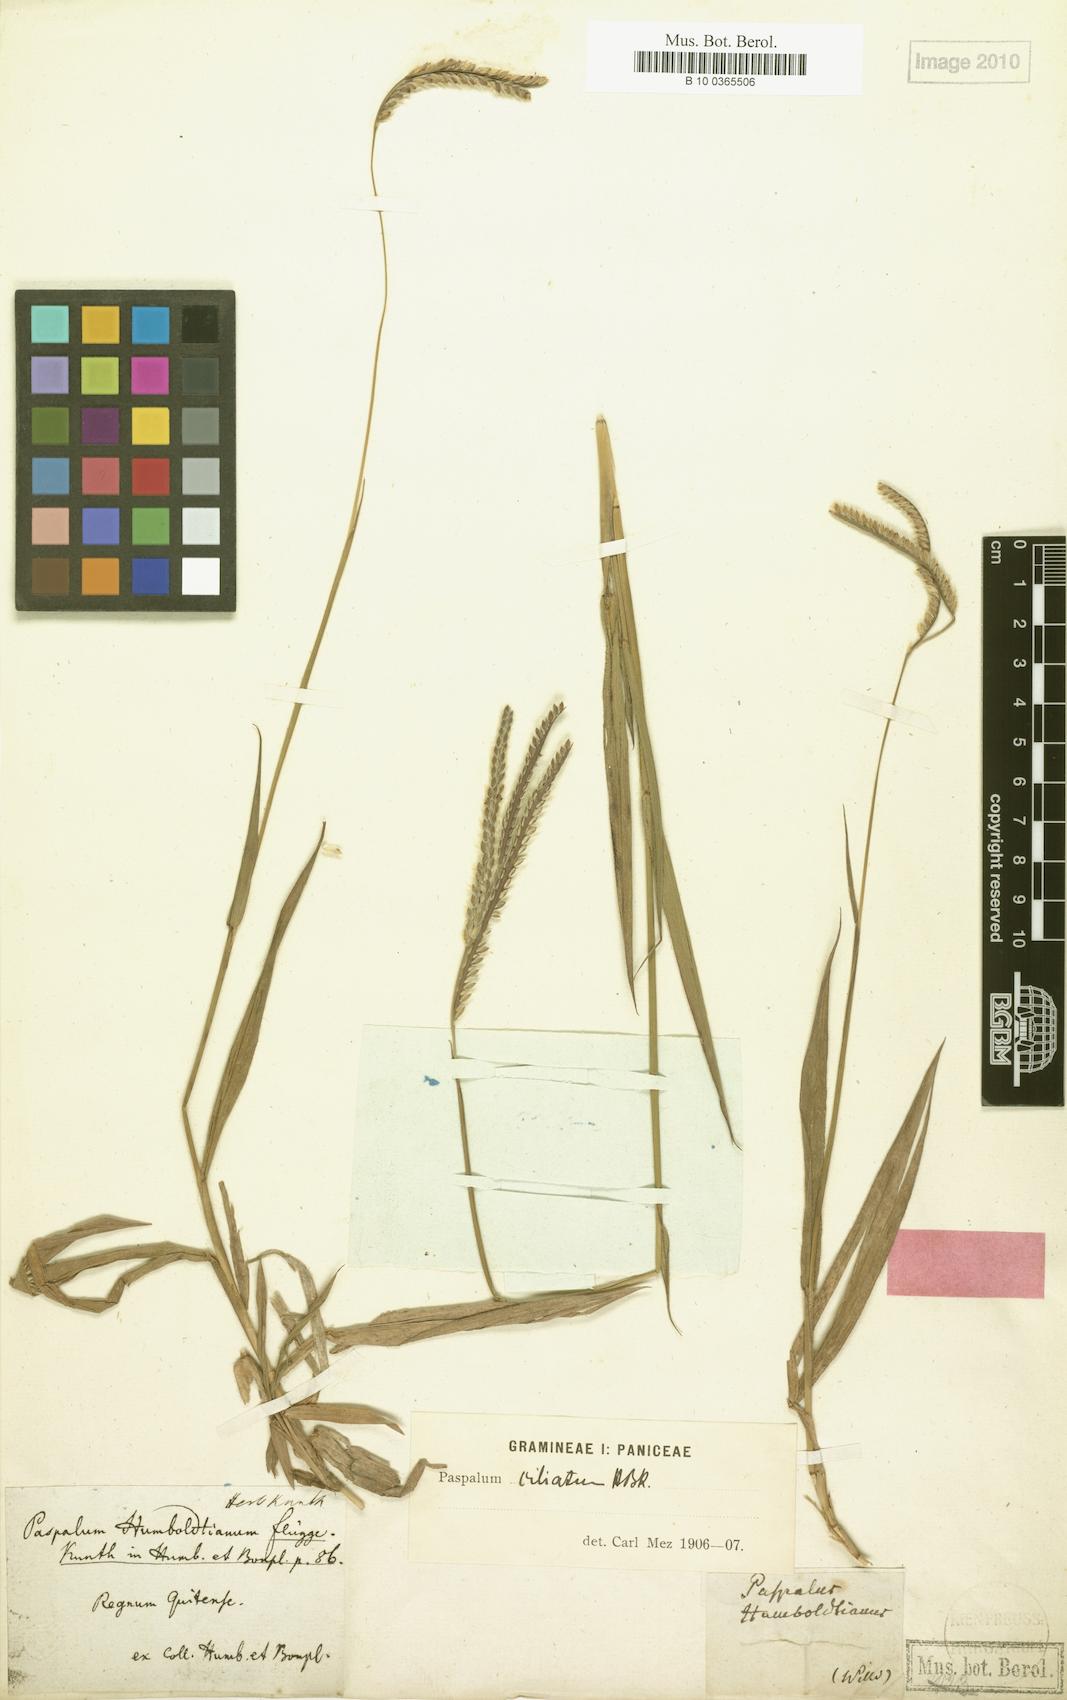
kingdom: Plantae
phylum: Tracheophyta
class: Liliopsida
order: Poales
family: Poaceae
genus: Paspalum
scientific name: Paspalum humboldtianum
